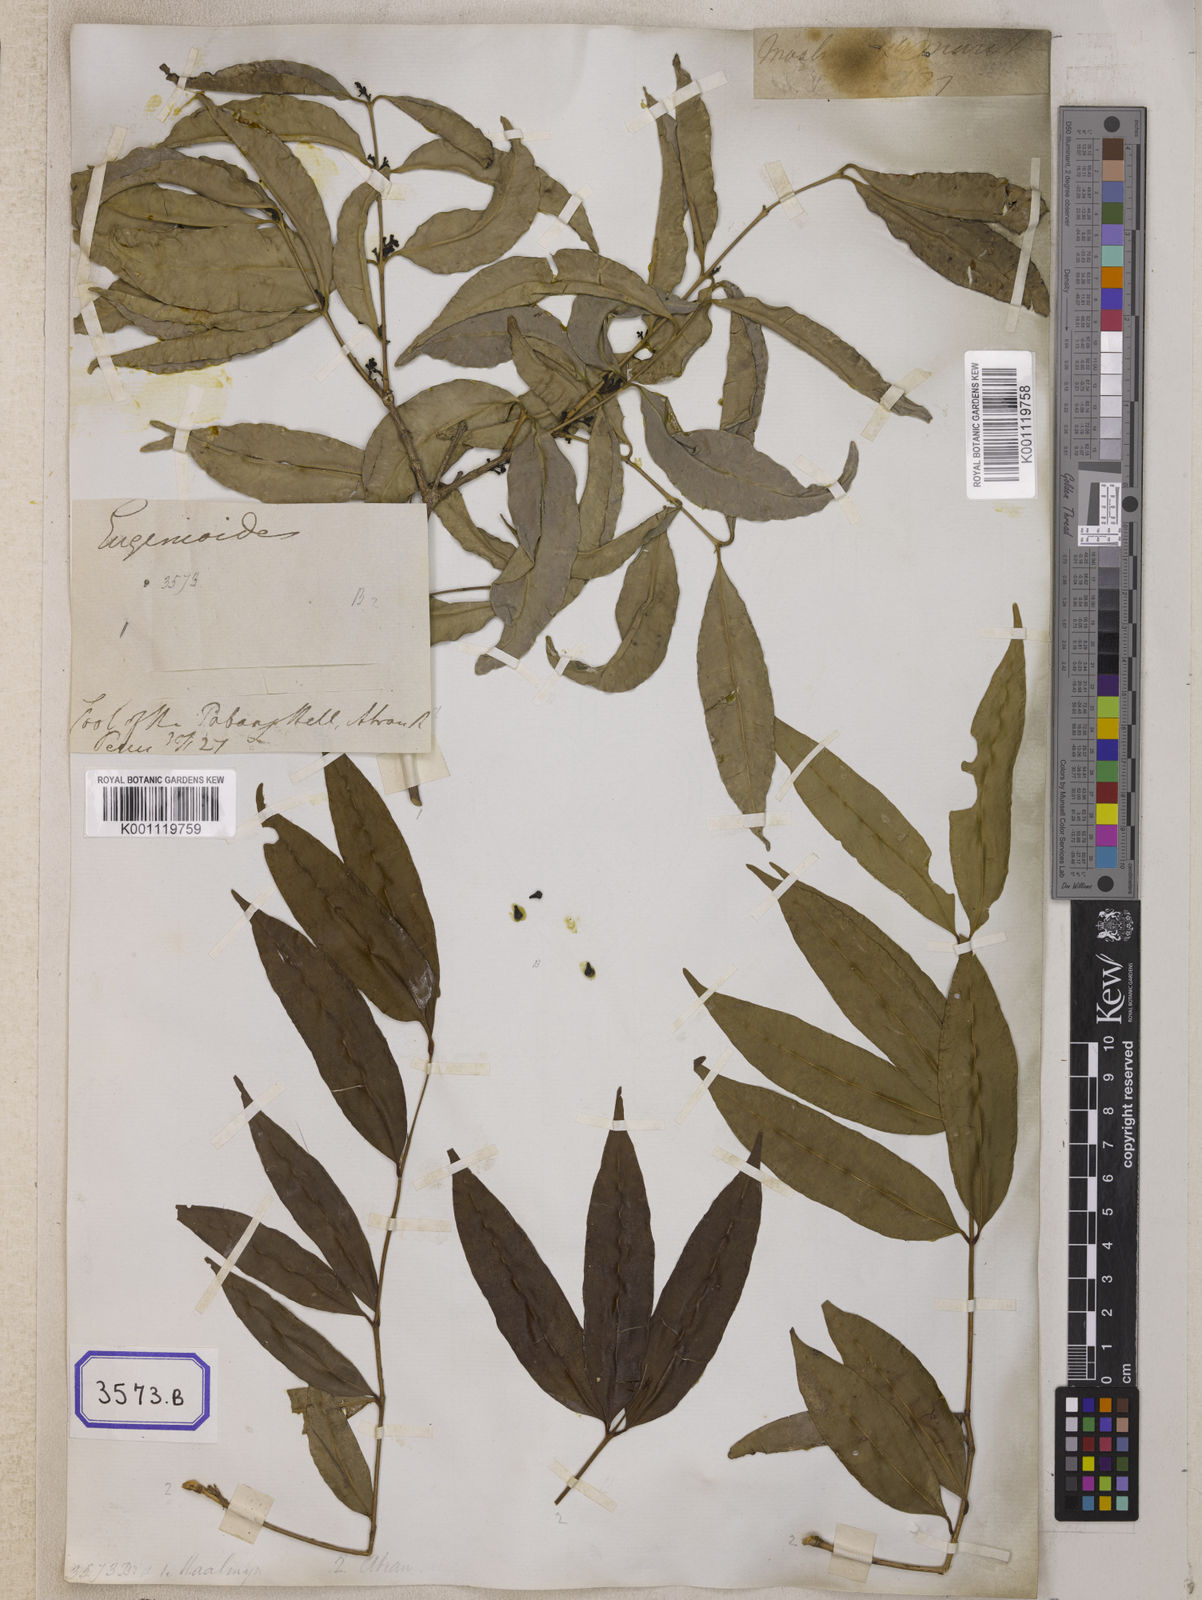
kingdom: Plantae
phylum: Tracheophyta
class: Magnoliopsida
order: Myrtales
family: Myrtaceae
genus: Syzygium
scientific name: Syzygium
